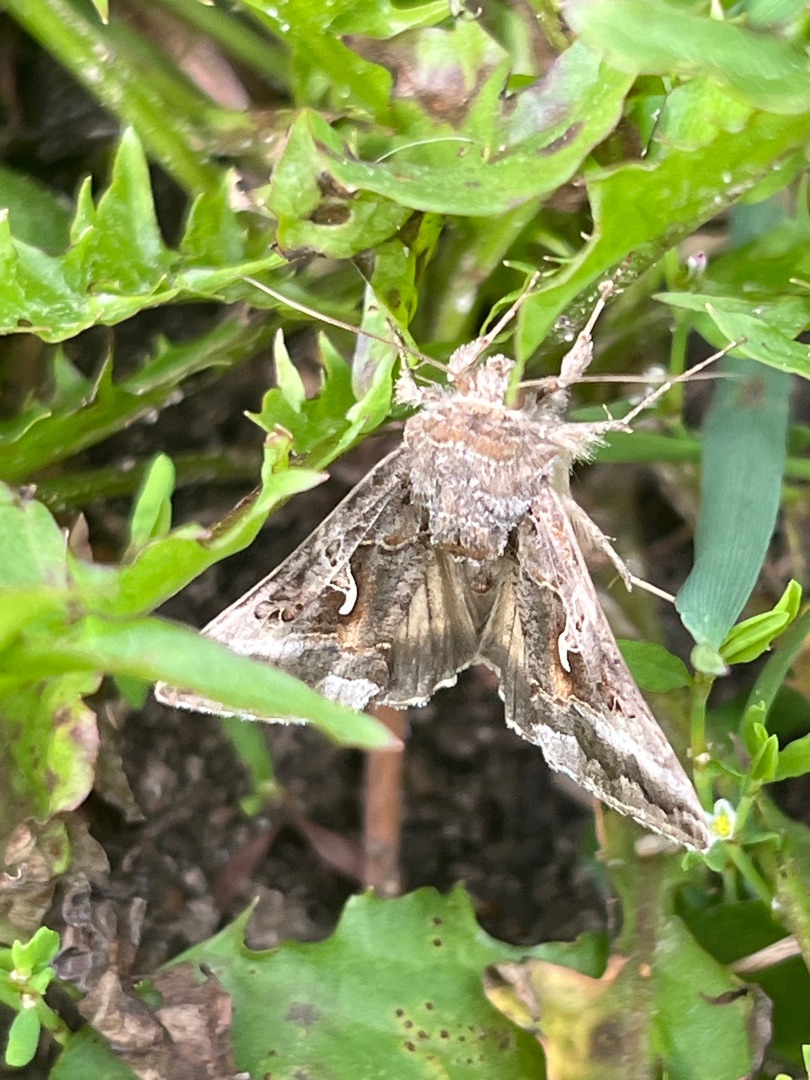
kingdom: Animalia
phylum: Arthropoda
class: Insecta
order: Lepidoptera
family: Noctuidae
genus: Autographa
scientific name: Autographa gamma
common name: Gammaugle
